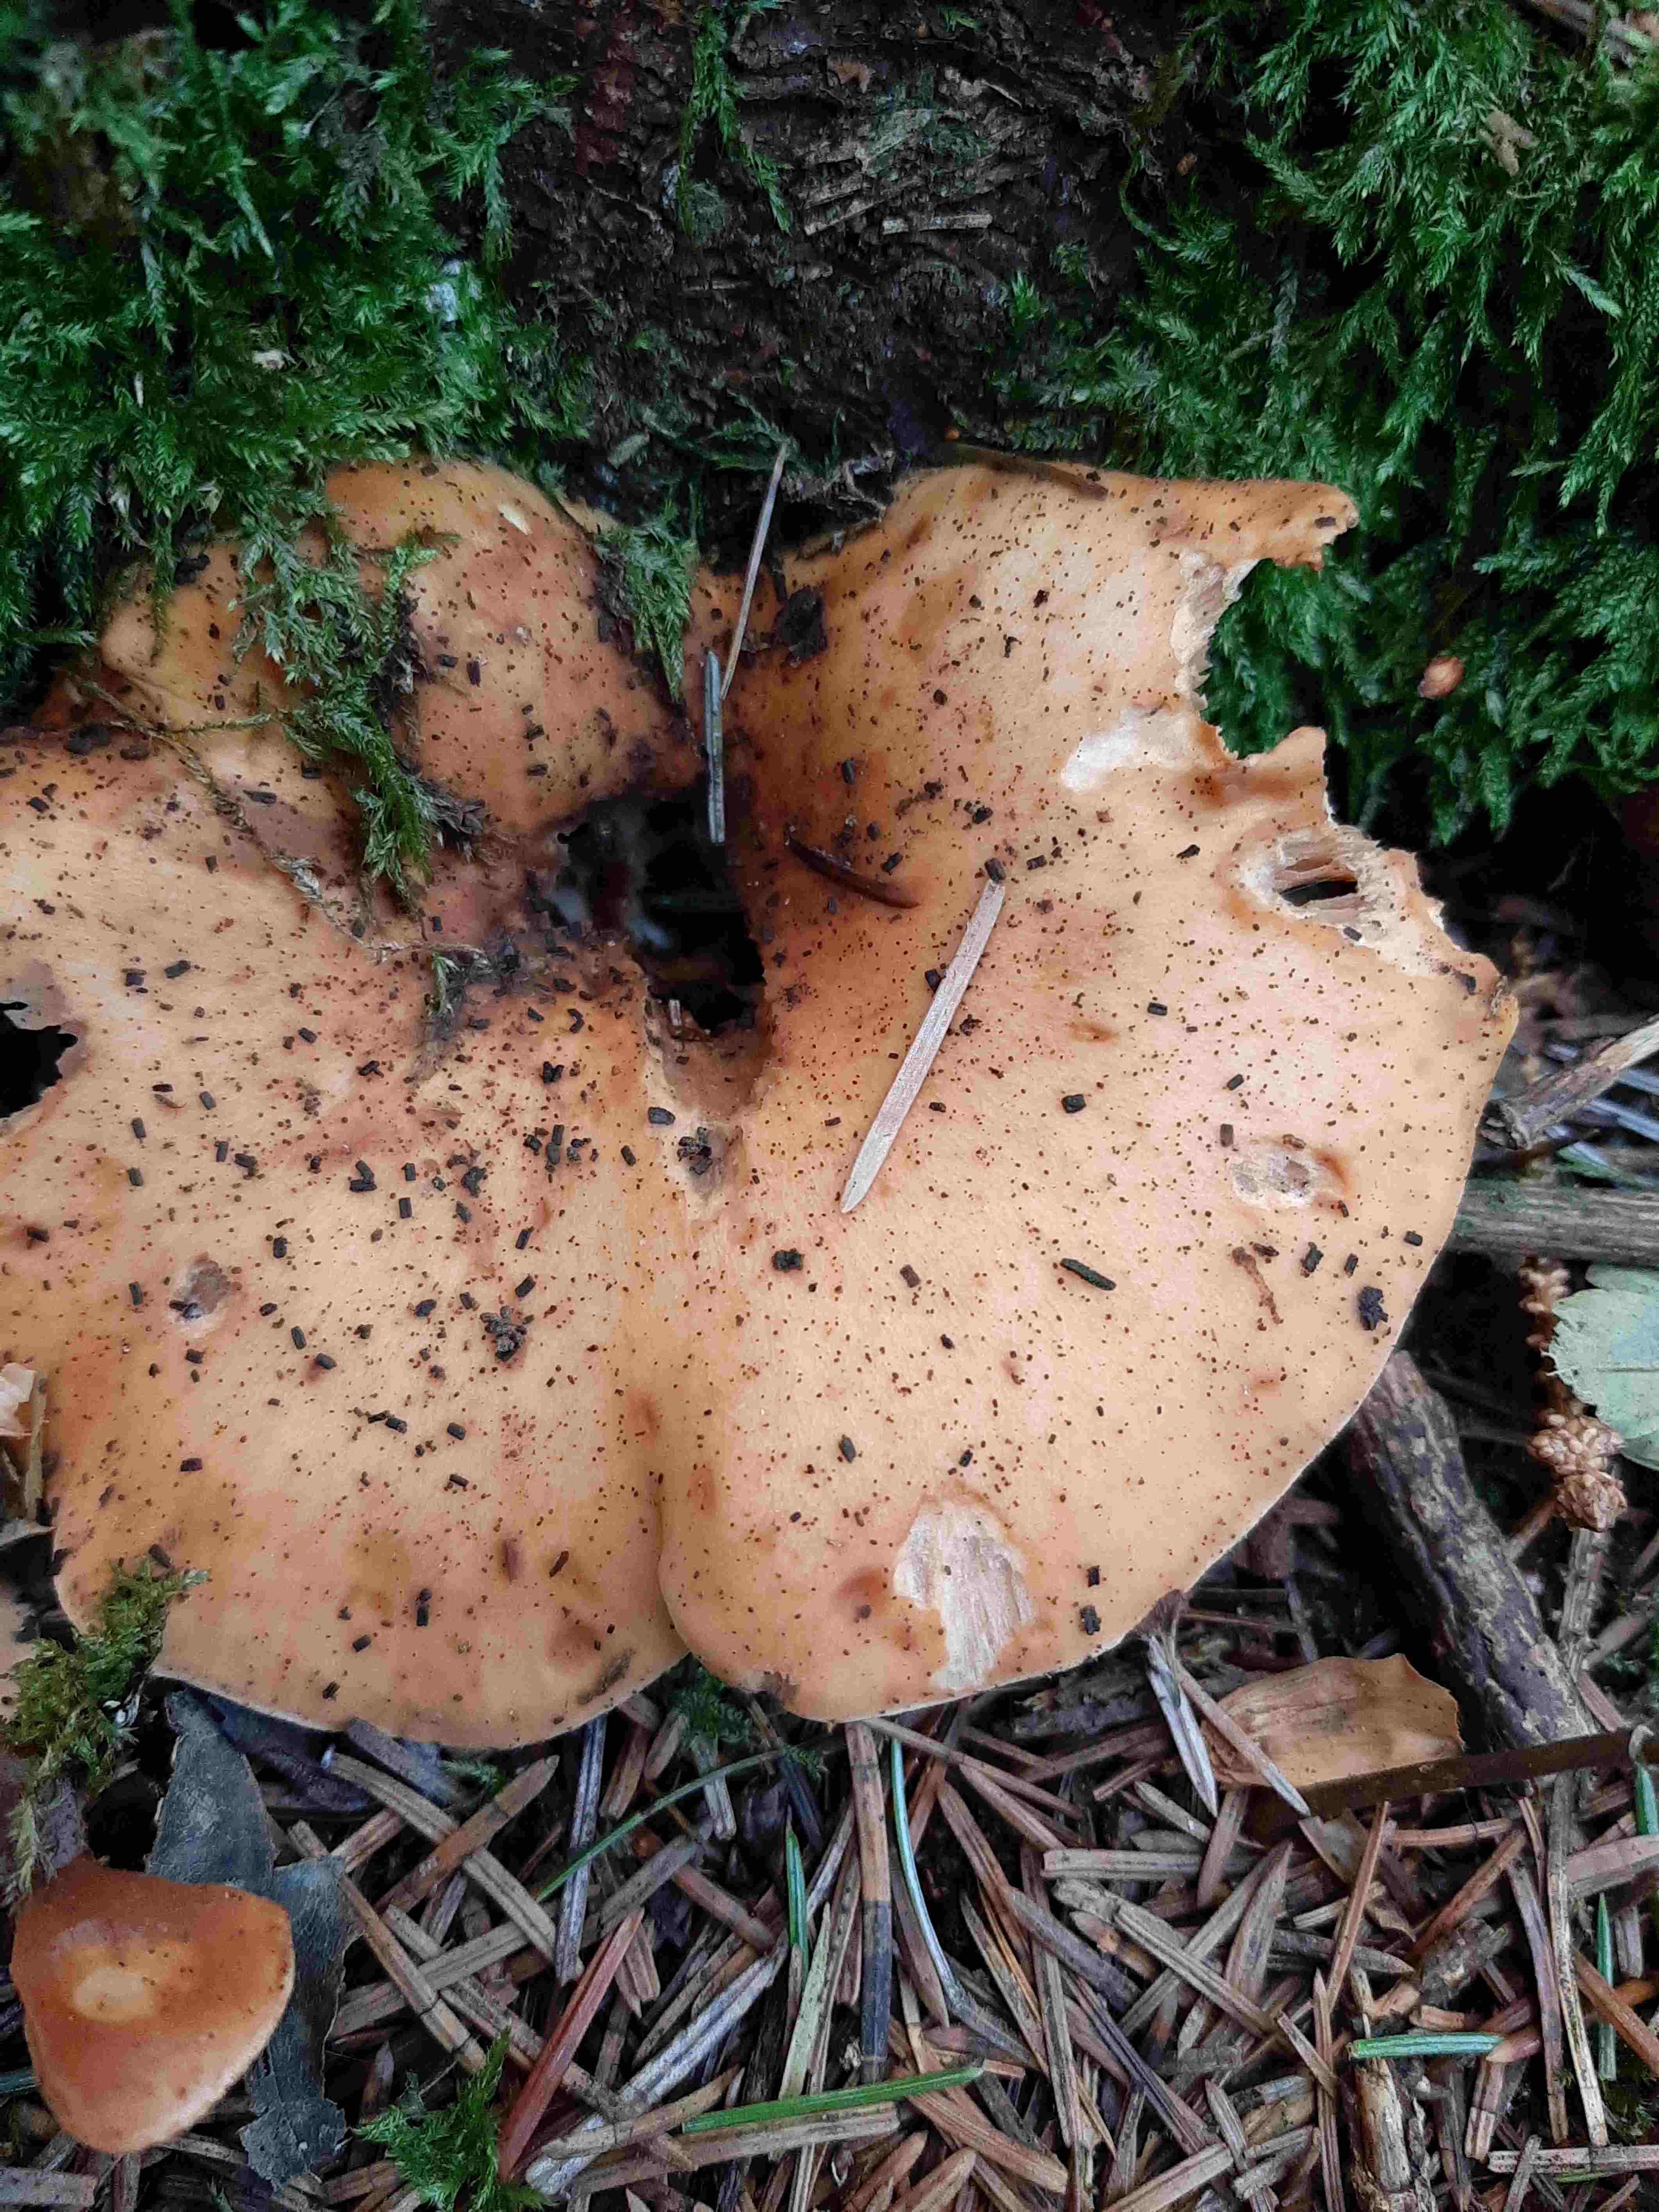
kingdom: Fungi
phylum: Basidiomycota
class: Agaricomycetes
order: Agaricales
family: Tricholomataceae
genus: Paralepista
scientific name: Paralepista flaccida
